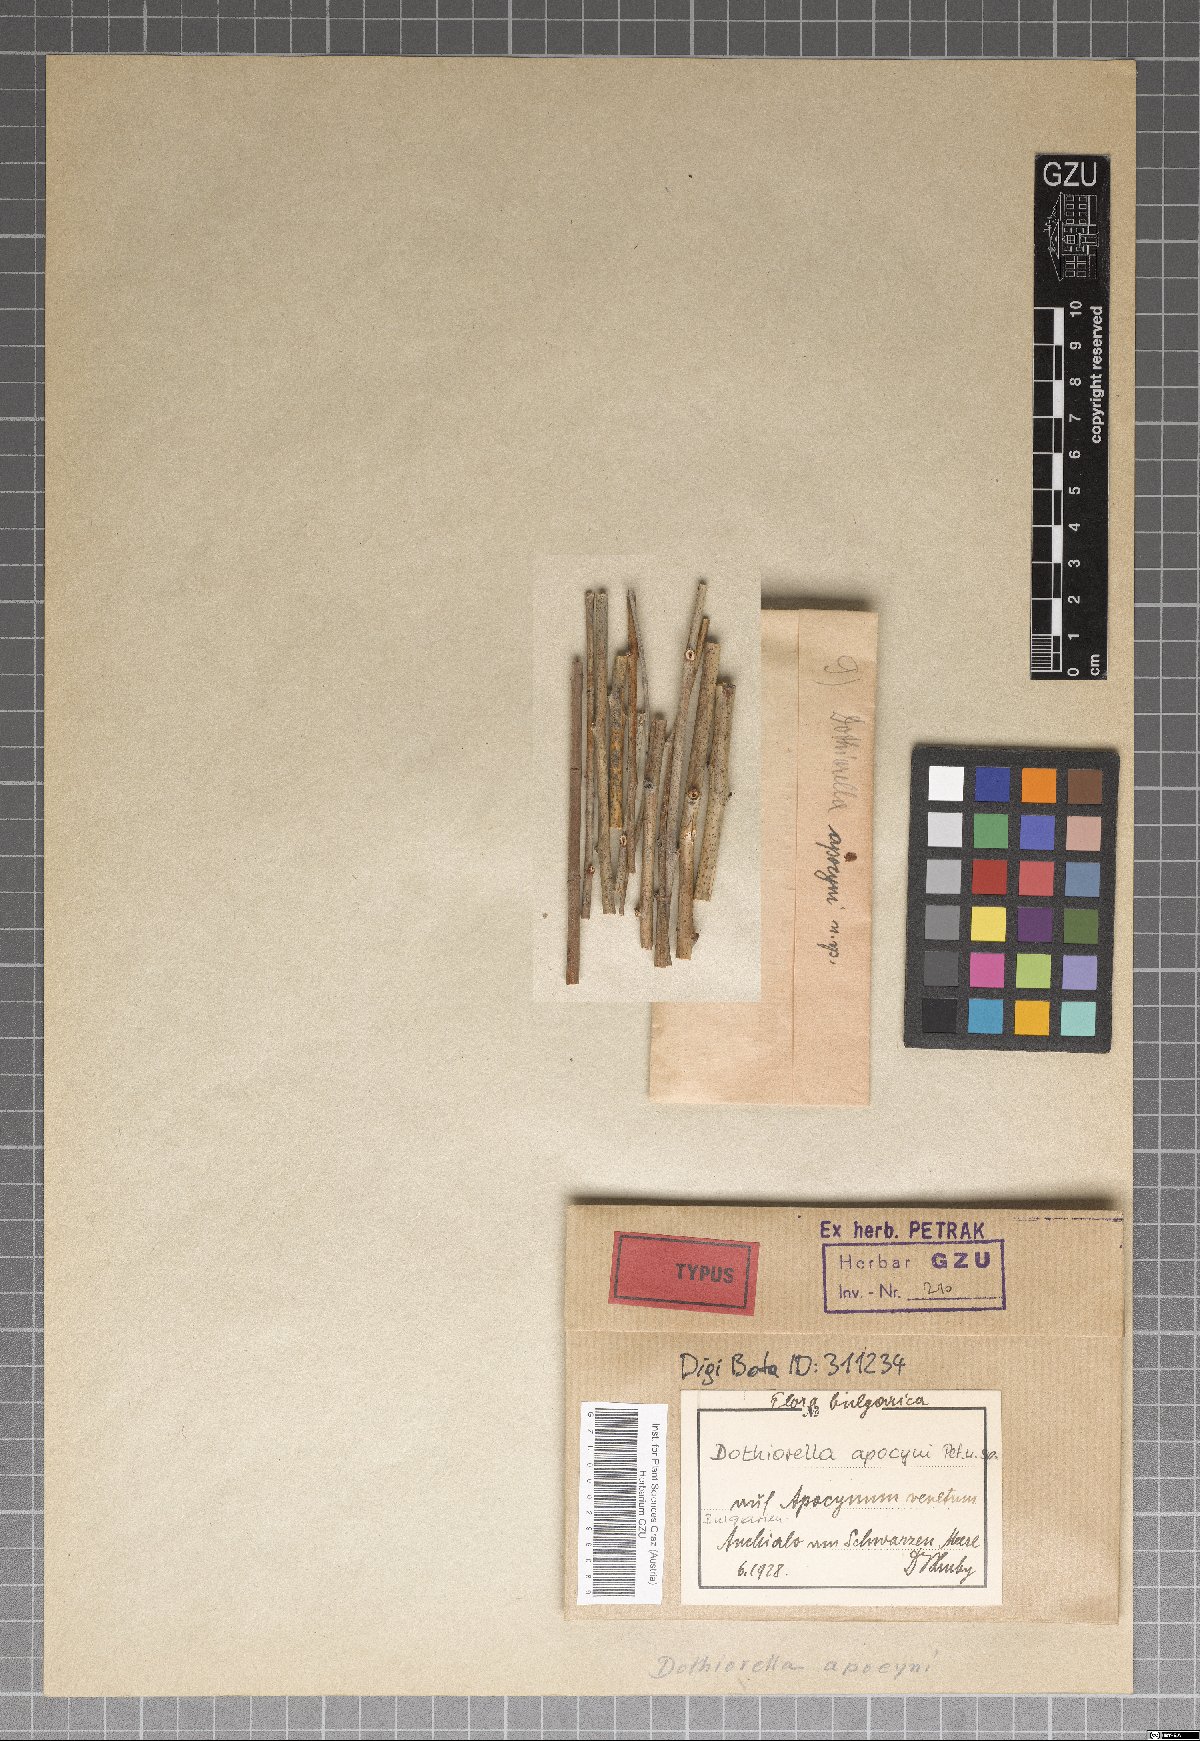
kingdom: Fungi
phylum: Ascomycota
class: Dothideomycetes
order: Botryosphaeriales
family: Botryosphaeriaceae
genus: Dothiorella
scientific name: Dothiorella apocyni
